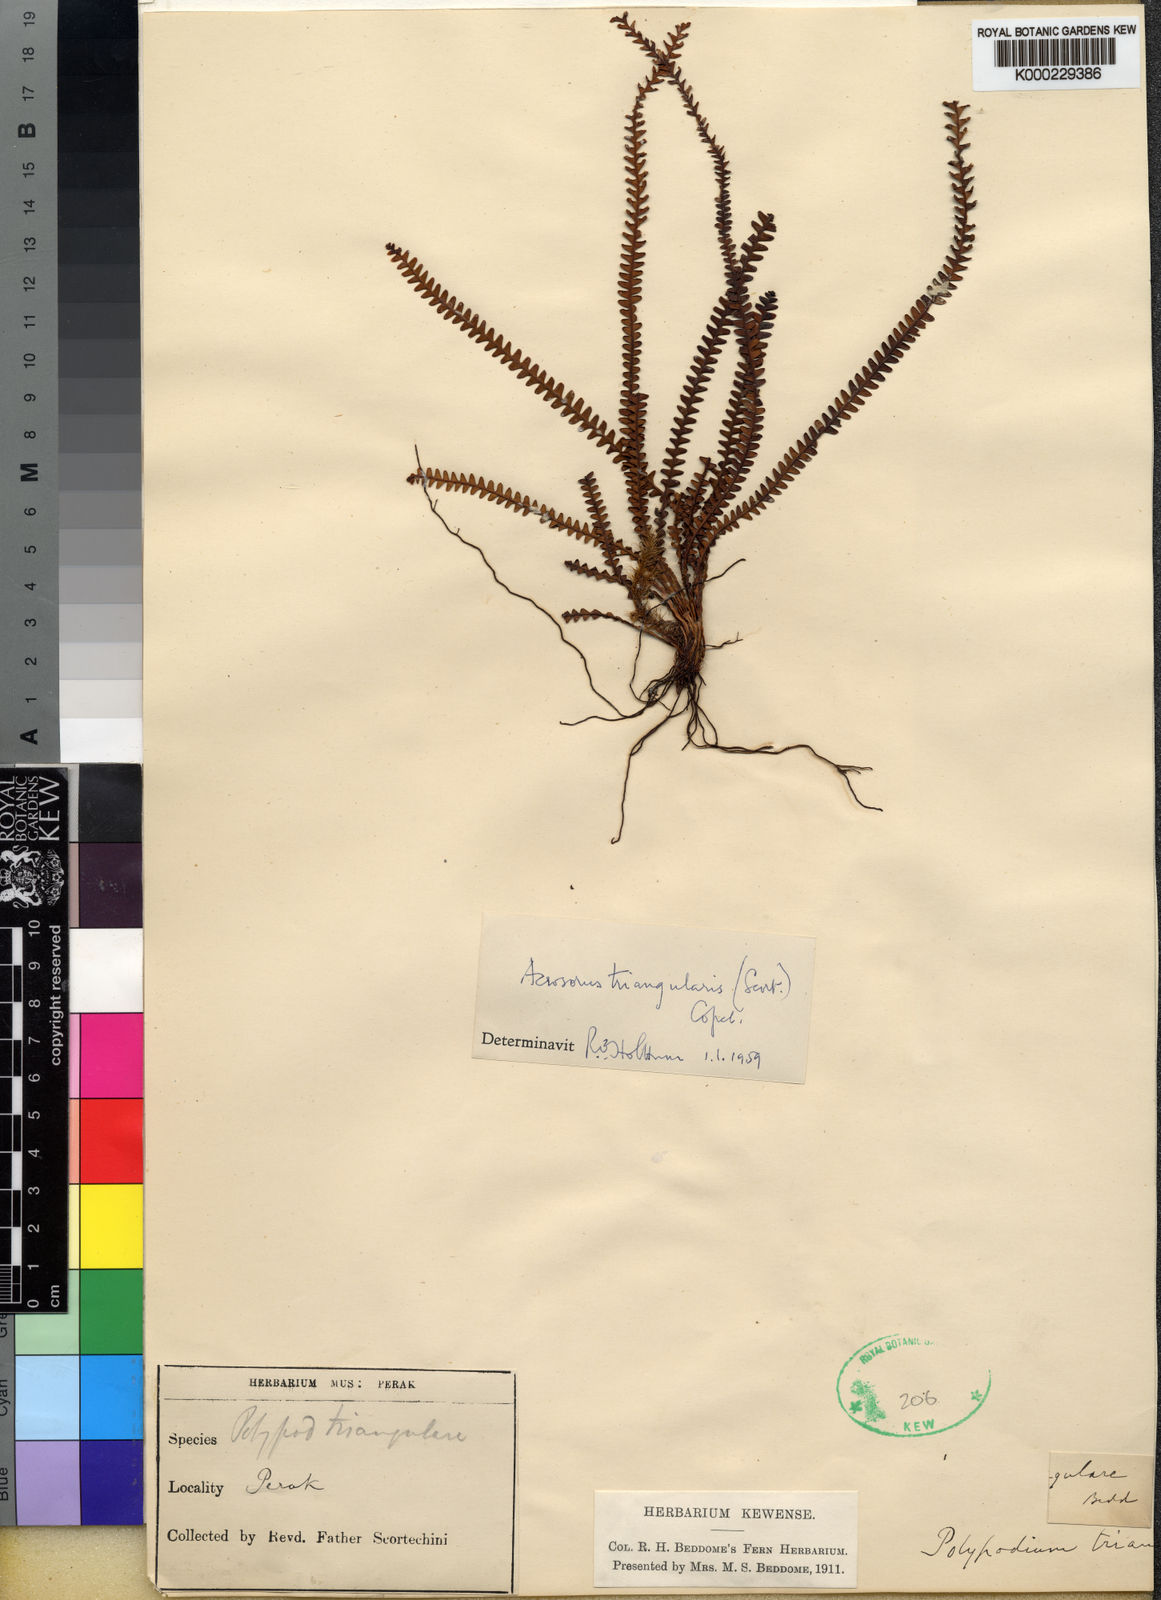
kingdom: Plantae
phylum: Tracheophyta
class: Polypodiopsida
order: Polypodiales
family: Polypodiaceae
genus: Acrosorus
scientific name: Acrosorus friderici-et-pauli
